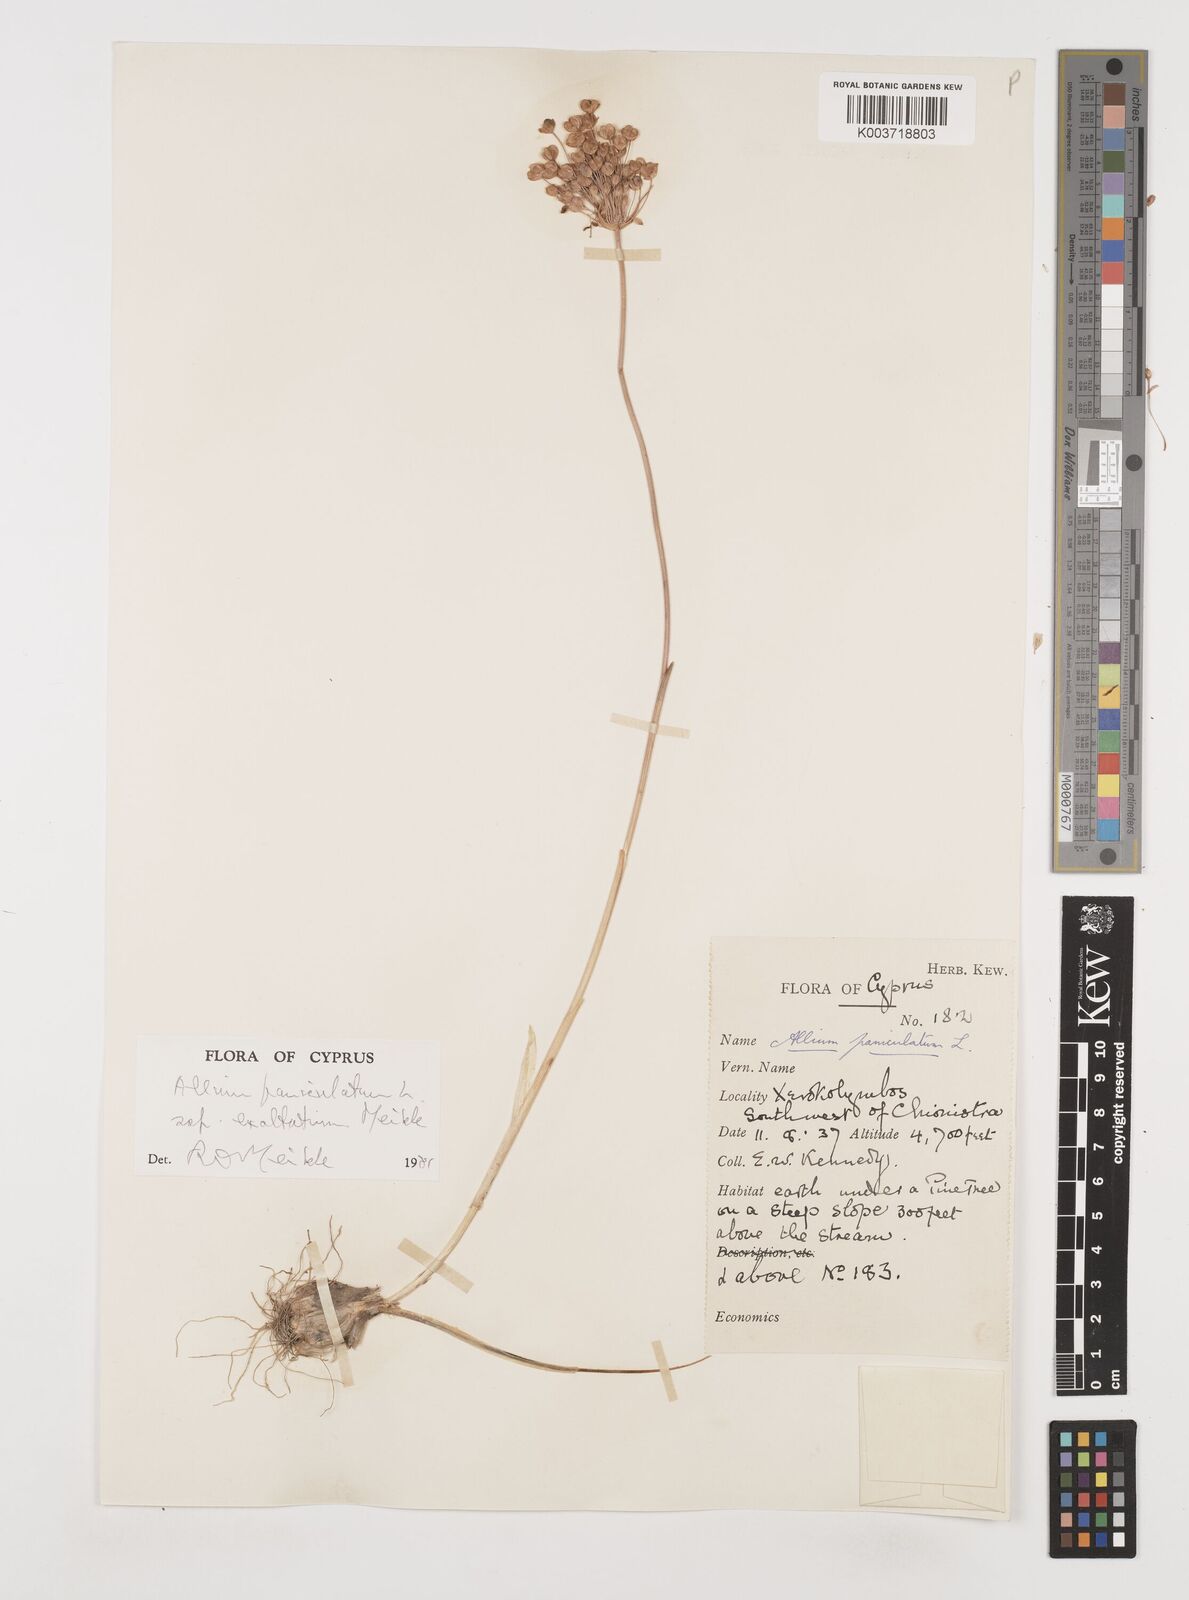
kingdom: Plantae
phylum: Tracheophyta
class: Liliopsida
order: Asparagales
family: Amaryllidaceae
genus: Allium
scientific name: Allium paniculatum
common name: Pale garlic
